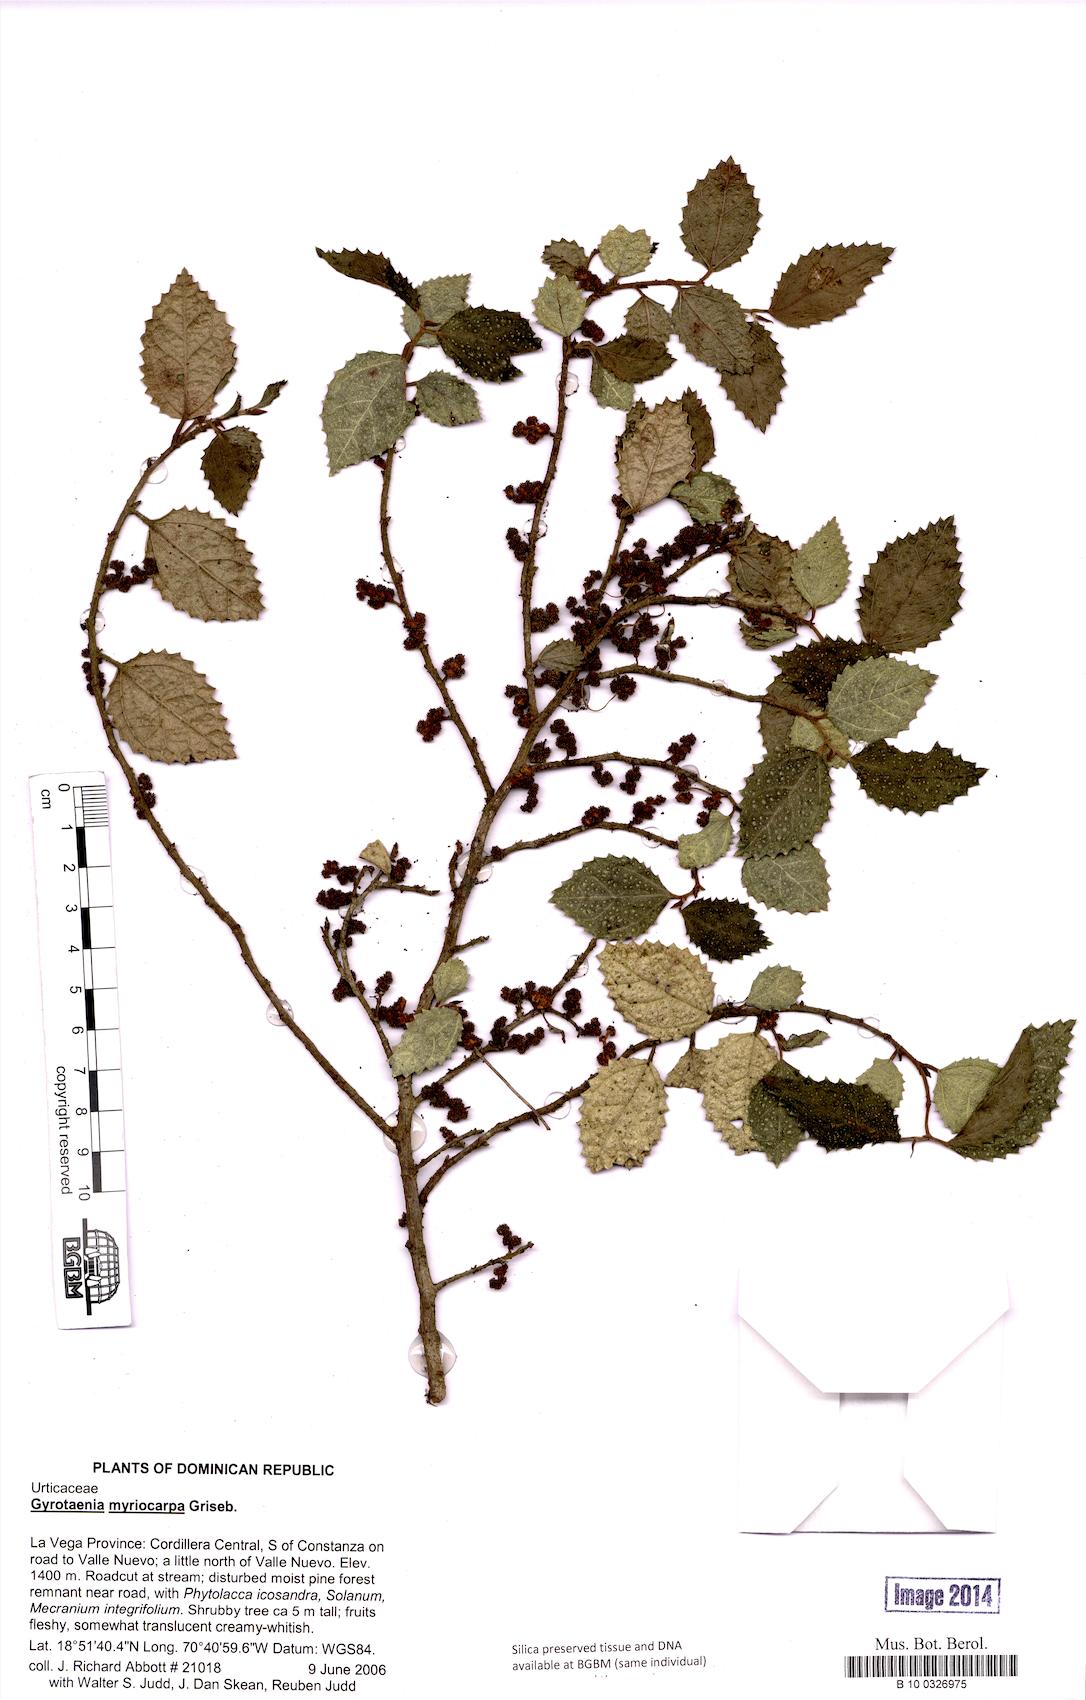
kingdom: Plantae
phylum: Tracheophyta
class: Magnoliopsida
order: Rosales
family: Urticaceae
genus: Gyrotaenia
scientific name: Gyrotaenia myriocarpa
